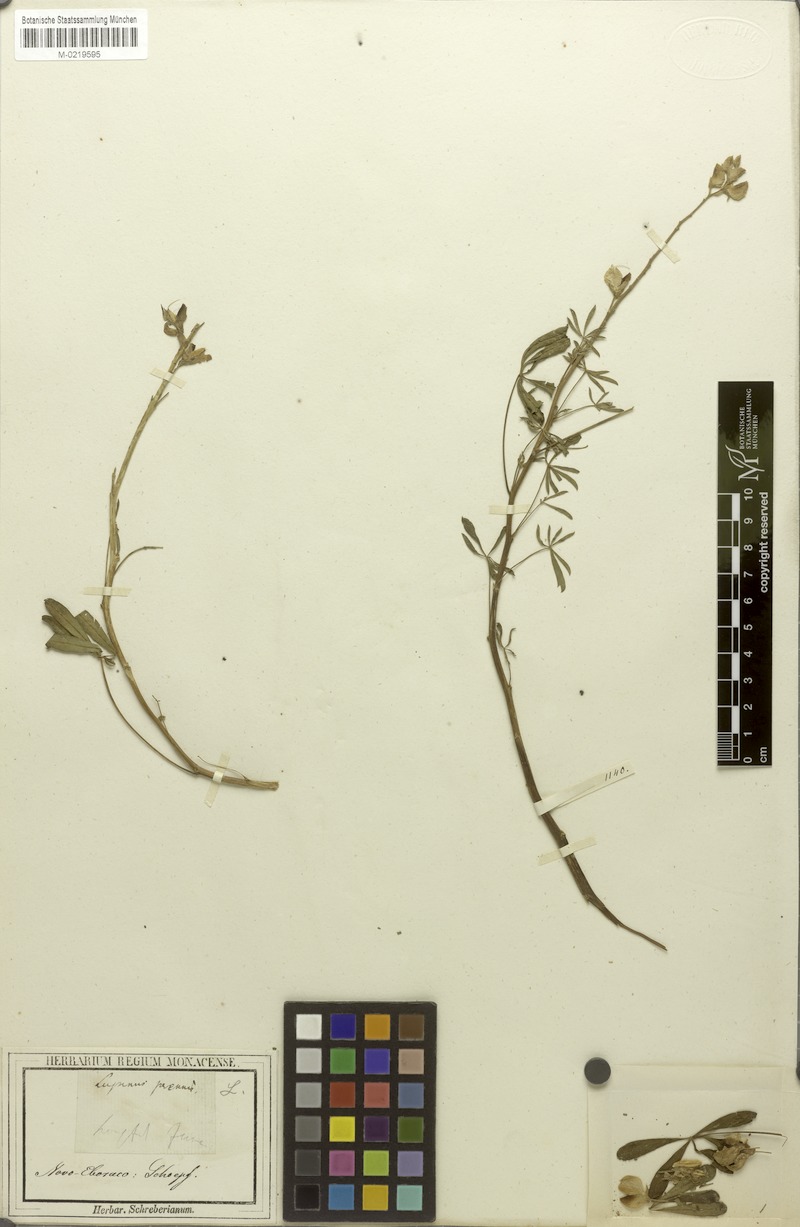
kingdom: Plantae
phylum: Tracheophyta
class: Magnoliopsida
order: Fabales
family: Fabaceae
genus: Lupinus
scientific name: Lupinus perennis
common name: Sundial lupine
